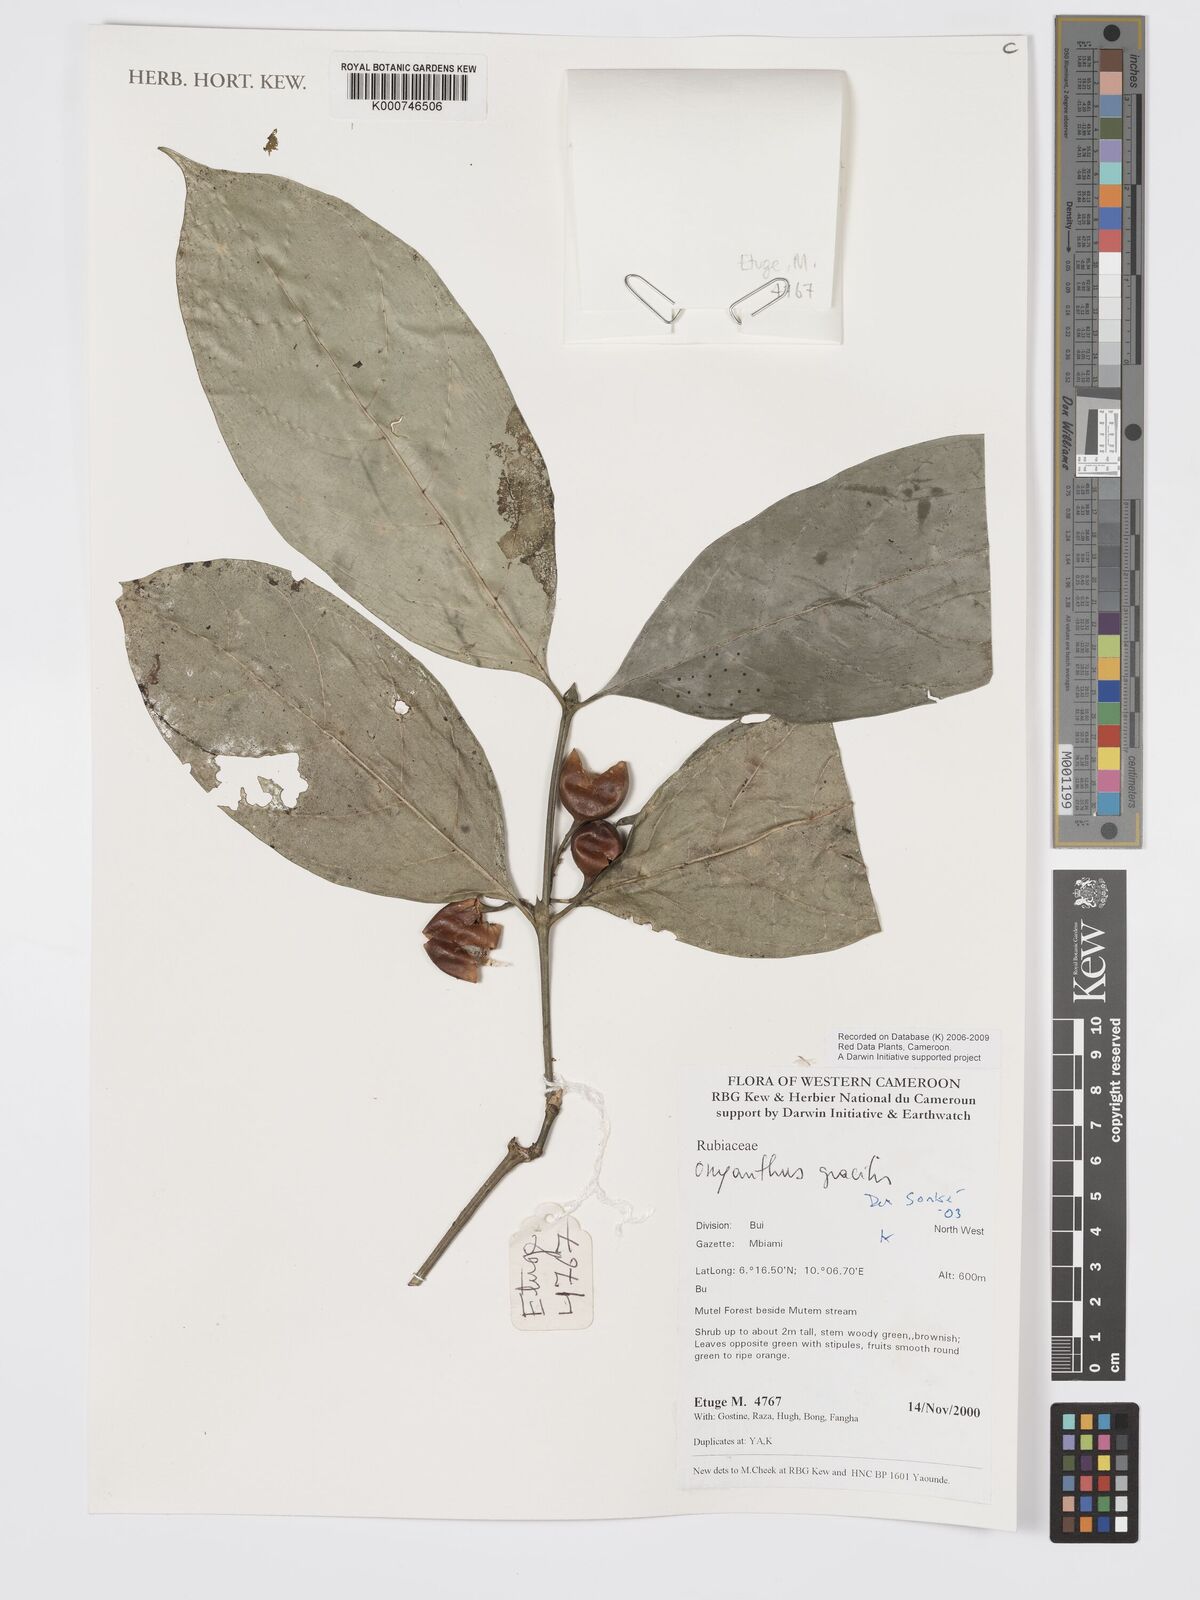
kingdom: Plantae
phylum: Tracheophyta
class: Magnoliopsida
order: Gentianales
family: Rubiaceae
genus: Oxyanthus
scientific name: Oxyanthus gracilis
